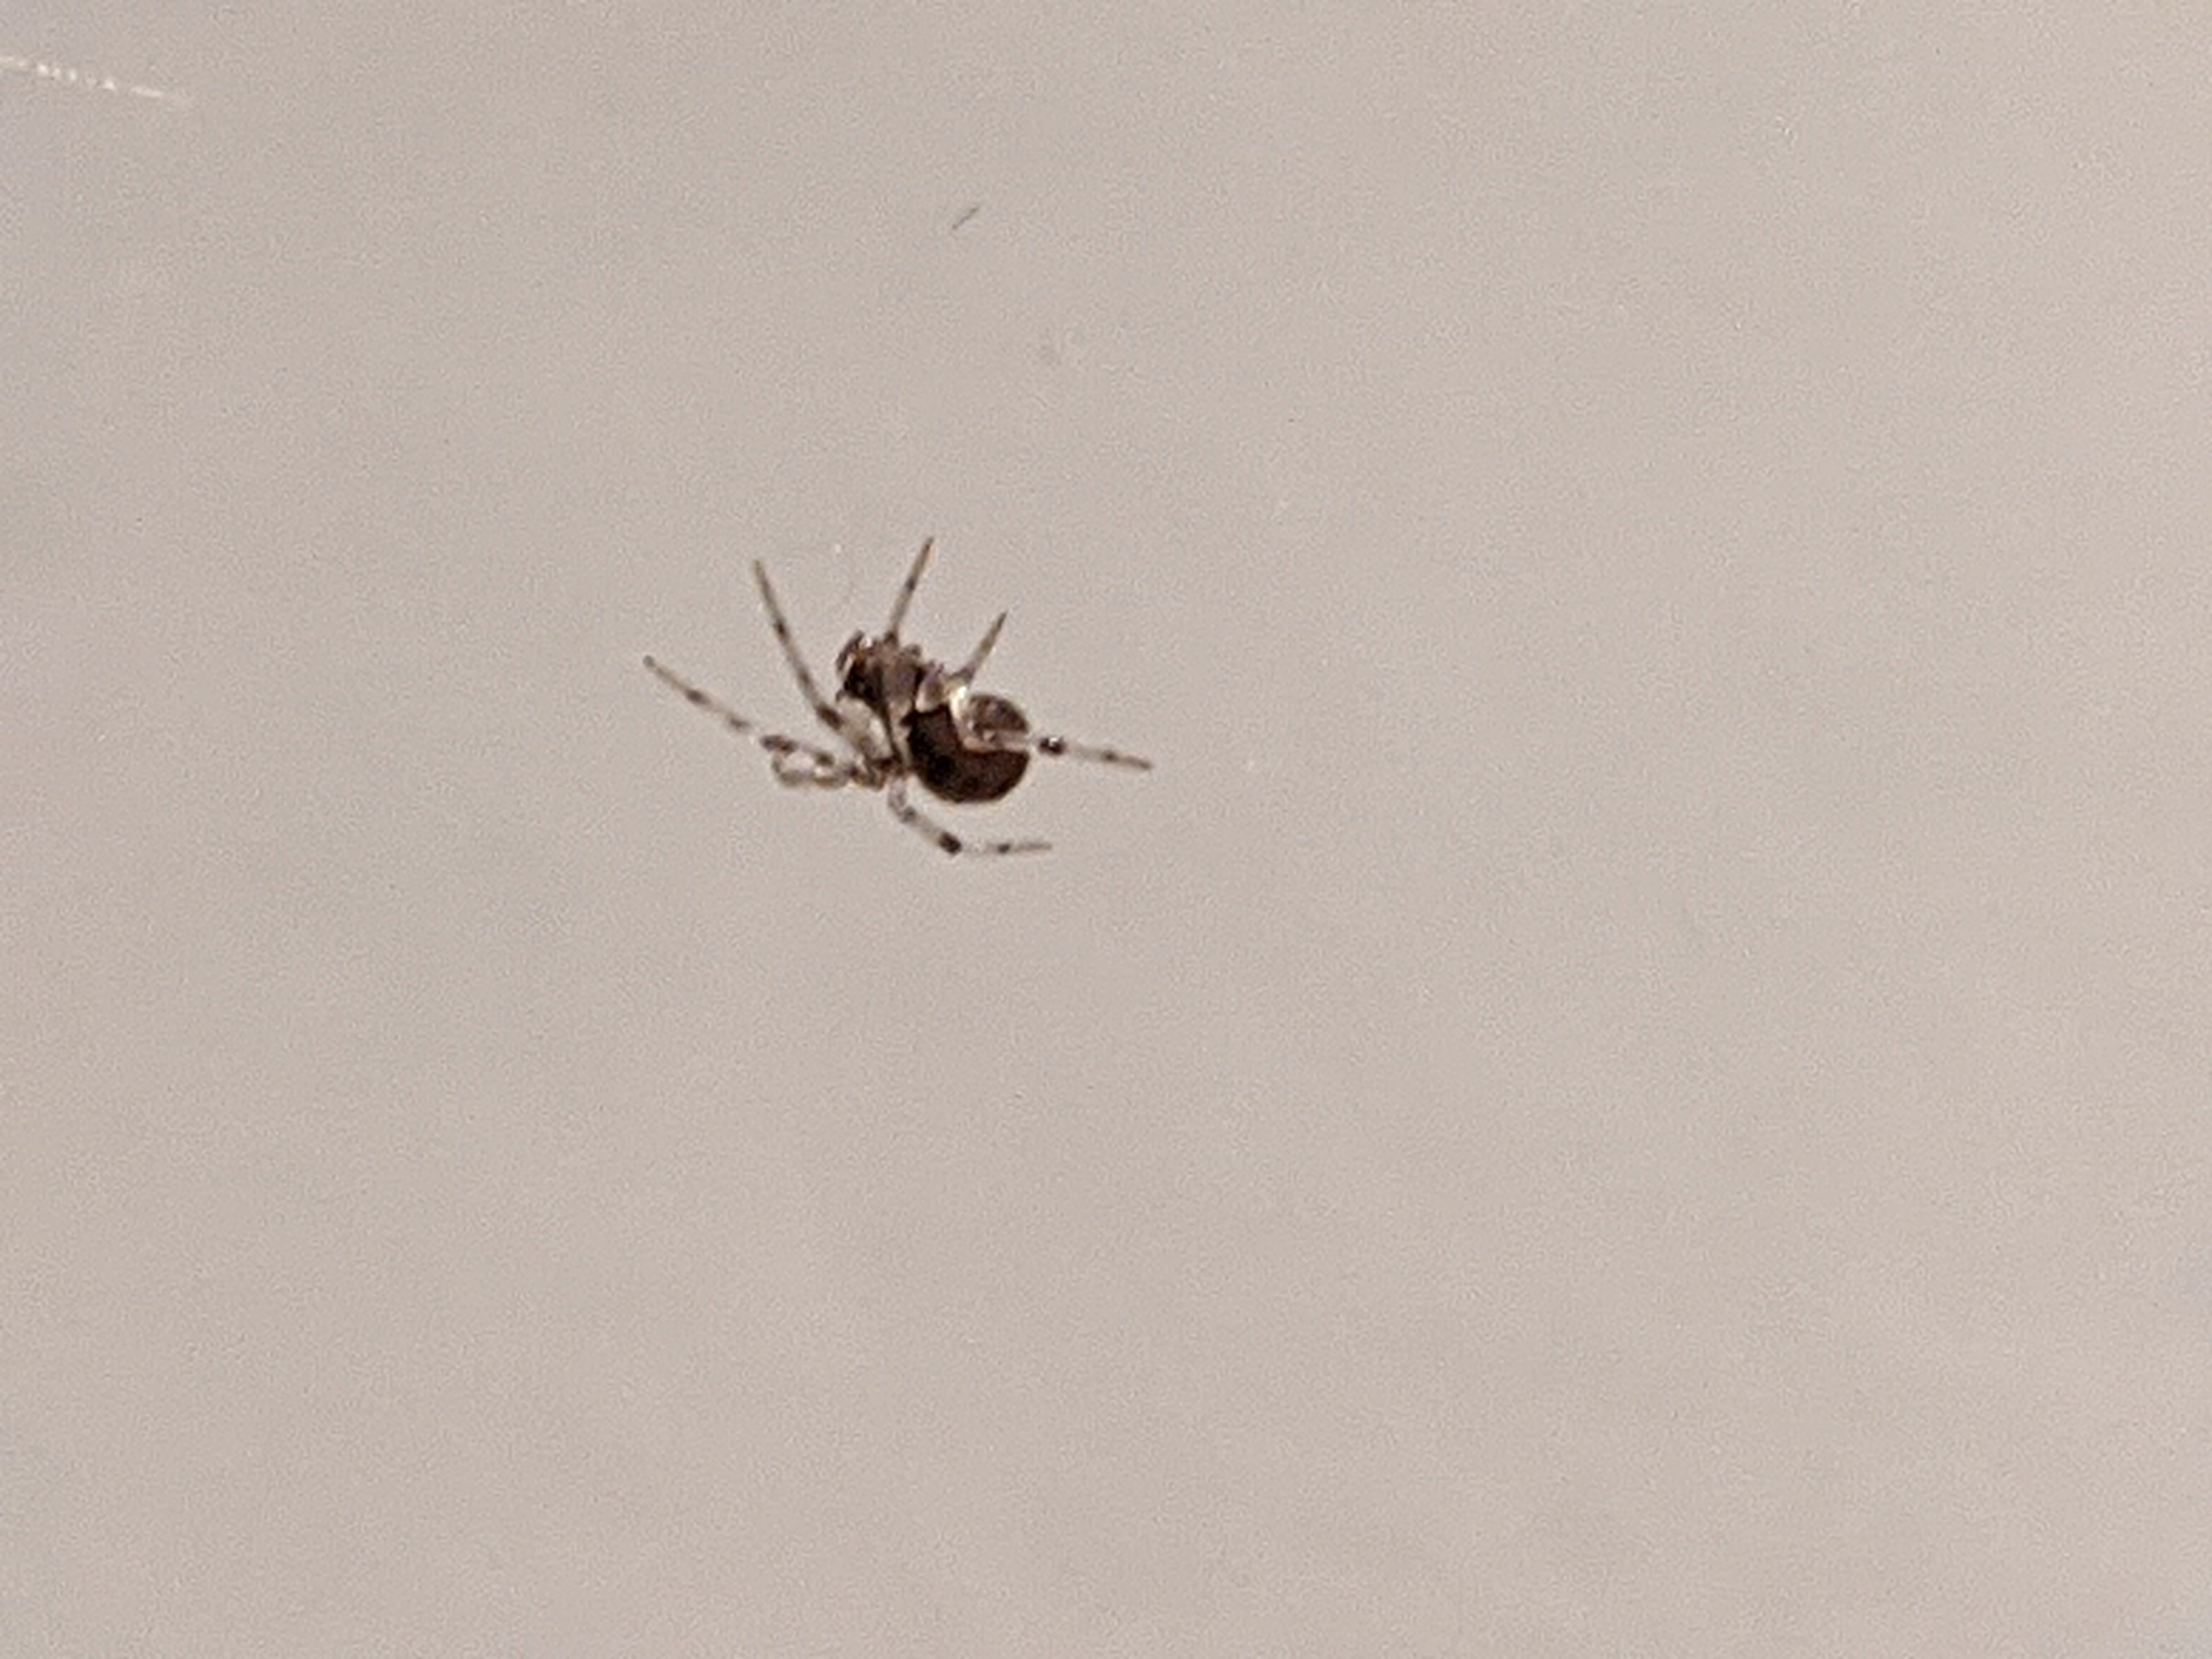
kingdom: Animalia
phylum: Arthropoda
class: Arachnida
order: Araneae
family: Theridiidae
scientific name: Theridiidae
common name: Kugleedderkopper
